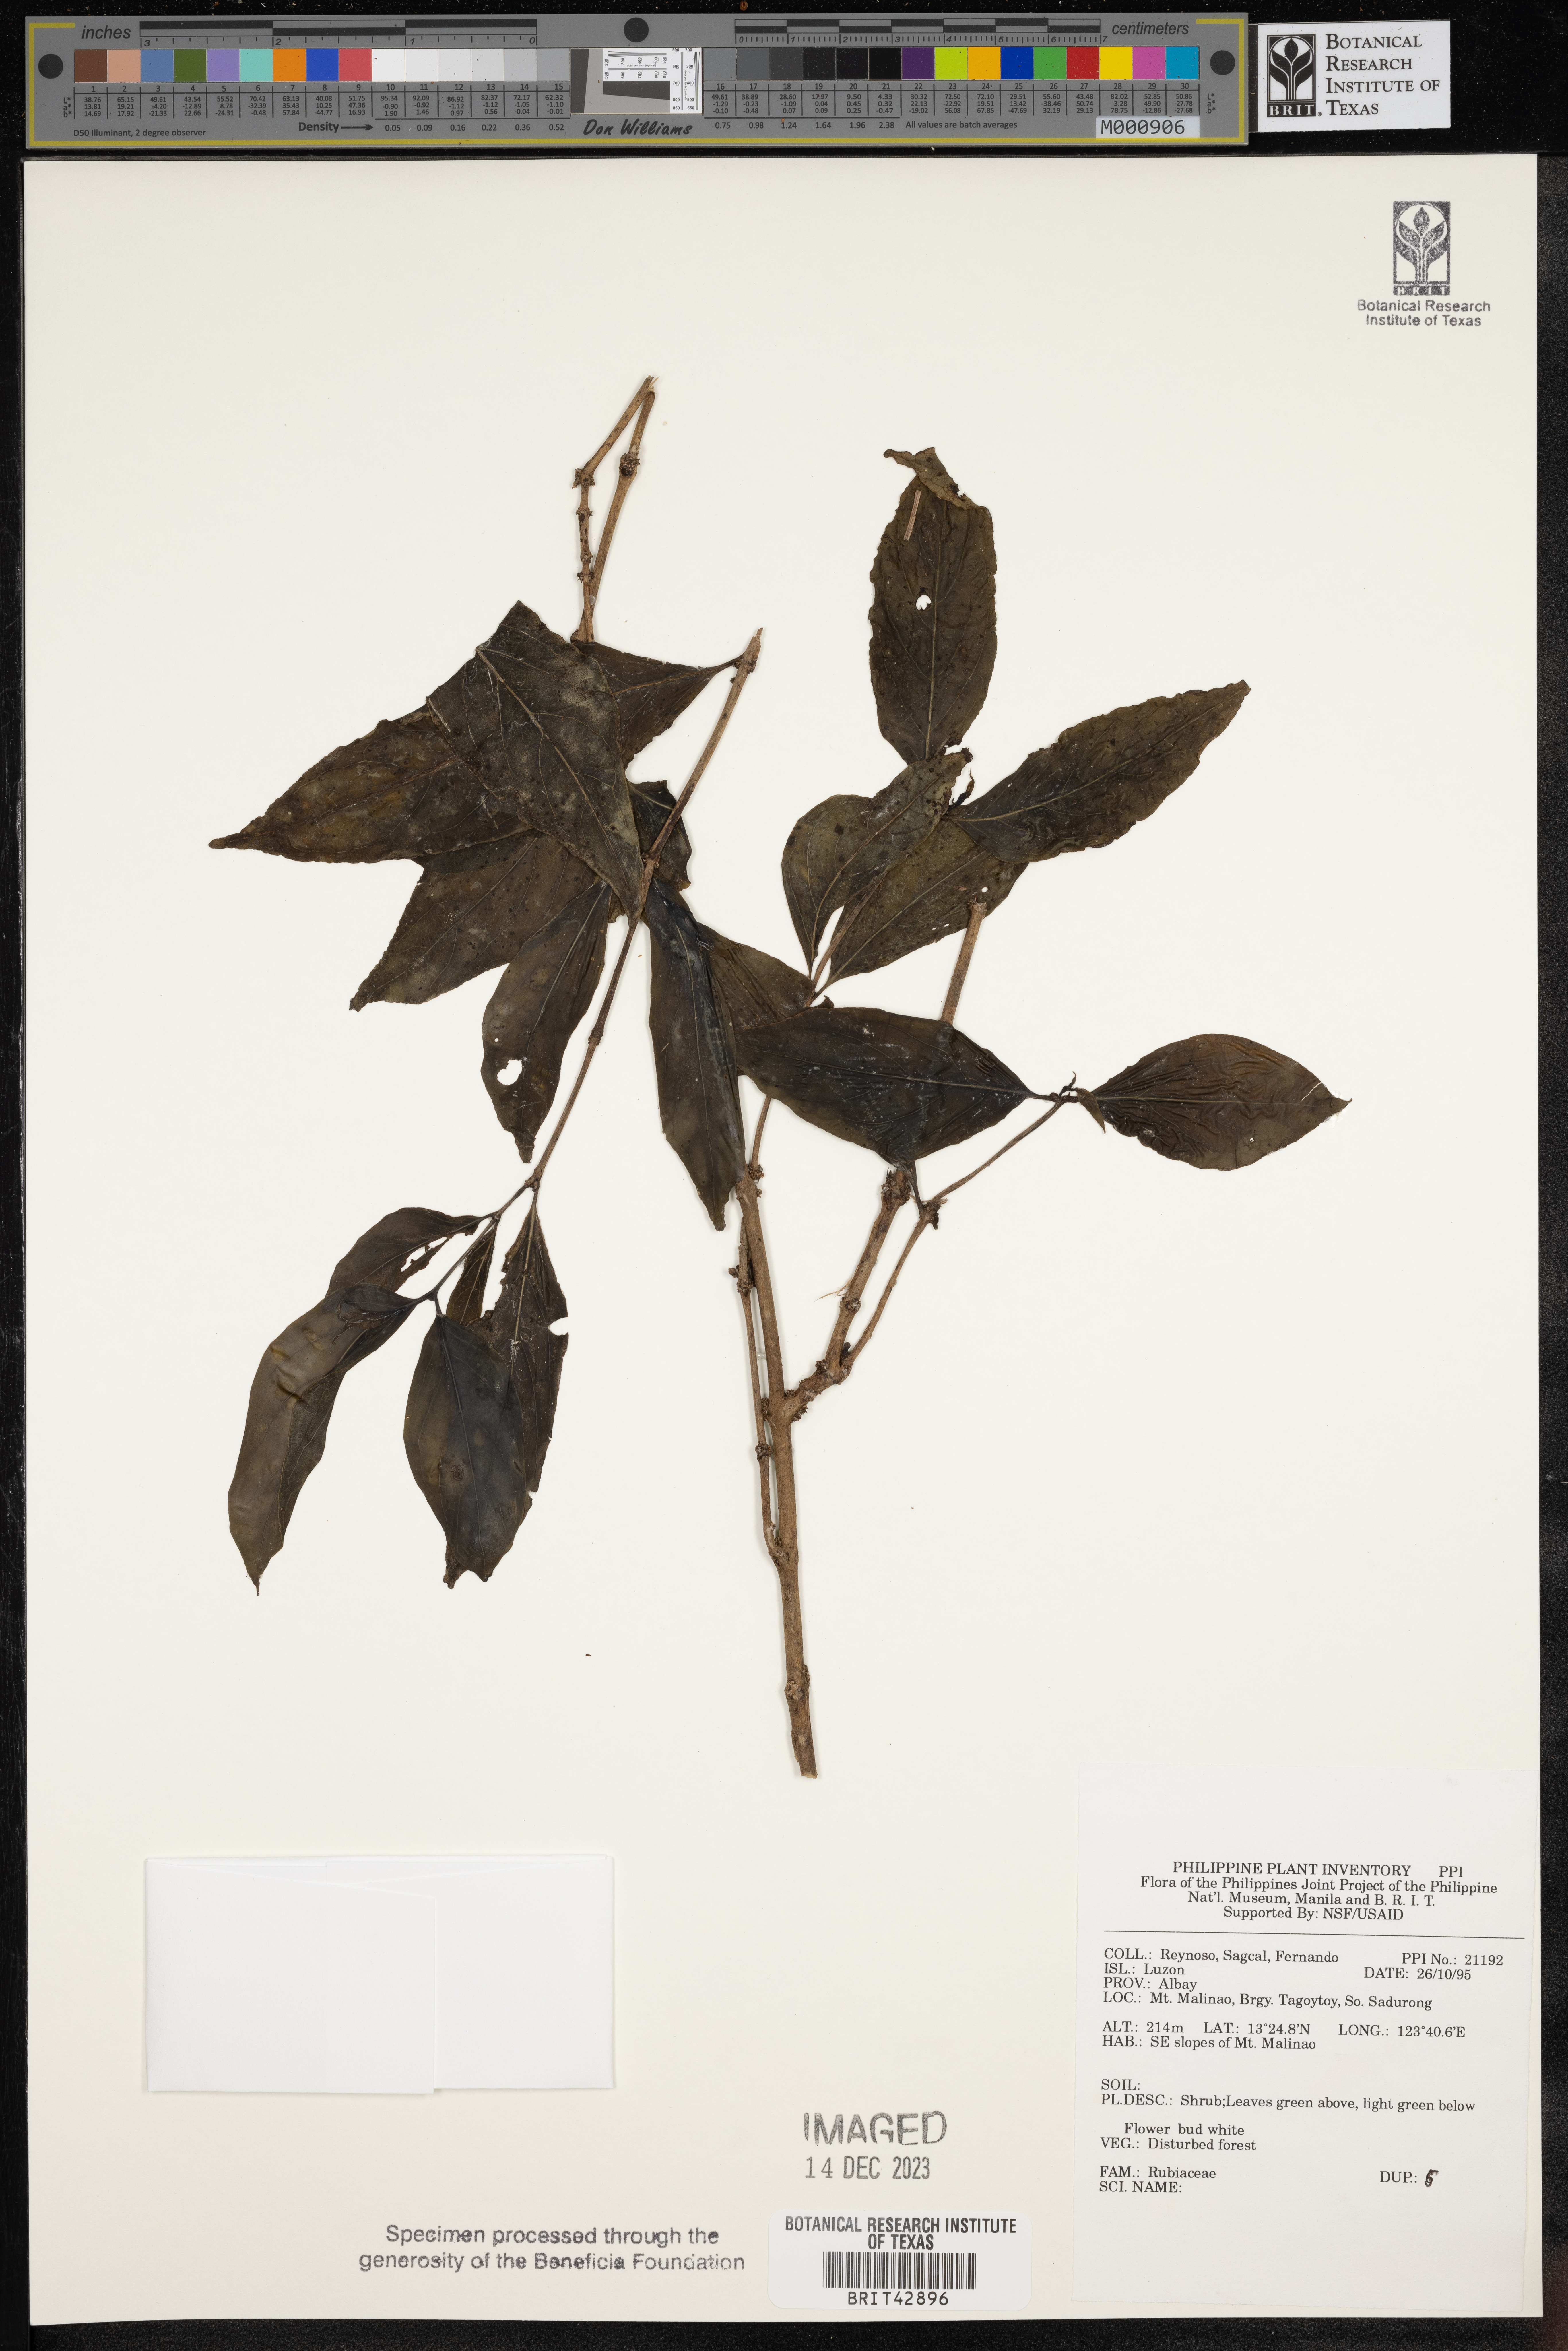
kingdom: Plantae
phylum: Tracheophyta
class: Magnoliopsida
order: Gentianales
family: Rubiaceae
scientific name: Rubiaceae
